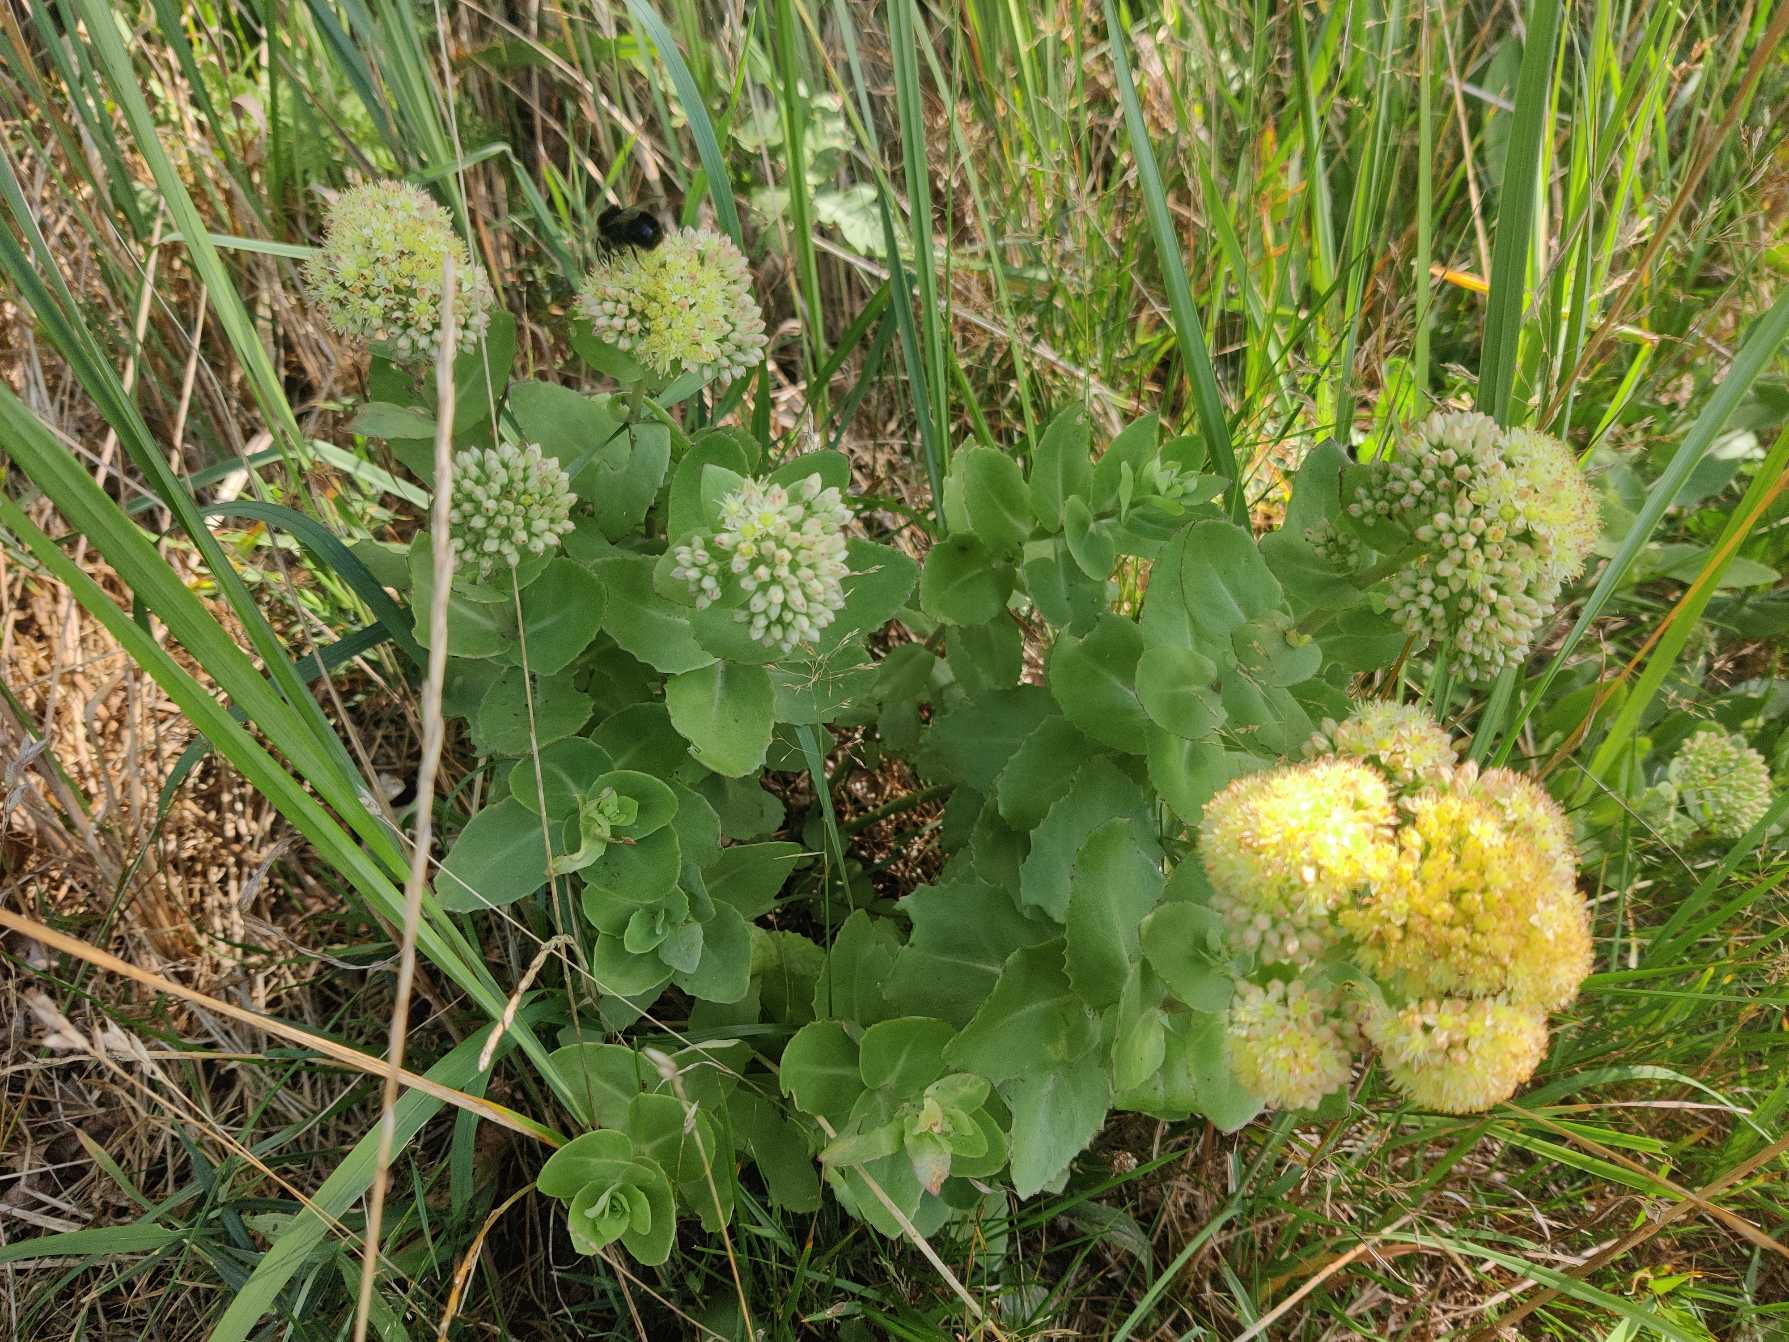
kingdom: Plantae
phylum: Tracheophyta
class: Magnoliopsida
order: Saxifragales
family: Crassulaceae
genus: Hylotelephium
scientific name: Hylotelephium maximum
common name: Almindelig sankthansurt
